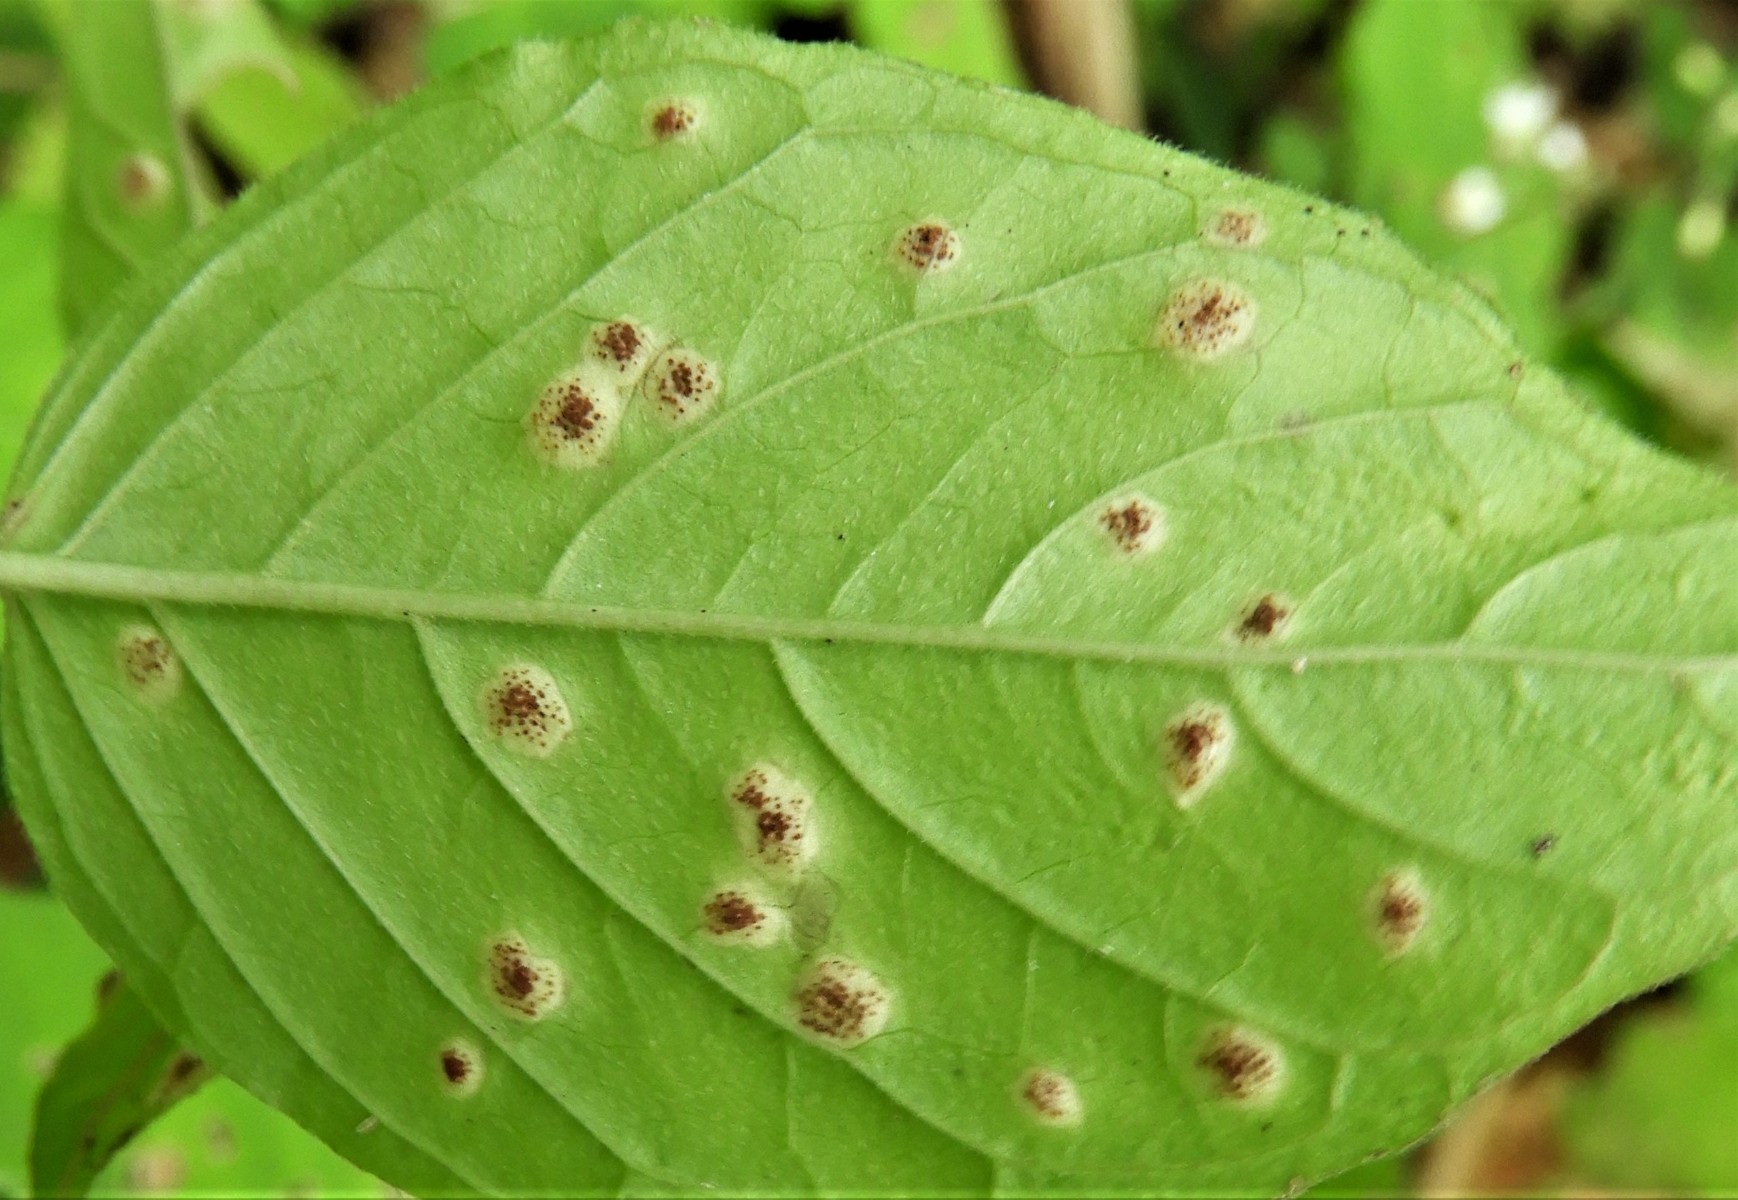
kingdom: Fungi
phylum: Basidiomycota
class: Pucciniomycetes
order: Pucciniales
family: Pucciniaceae
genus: Puccinia
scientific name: Puccinia circaeae
